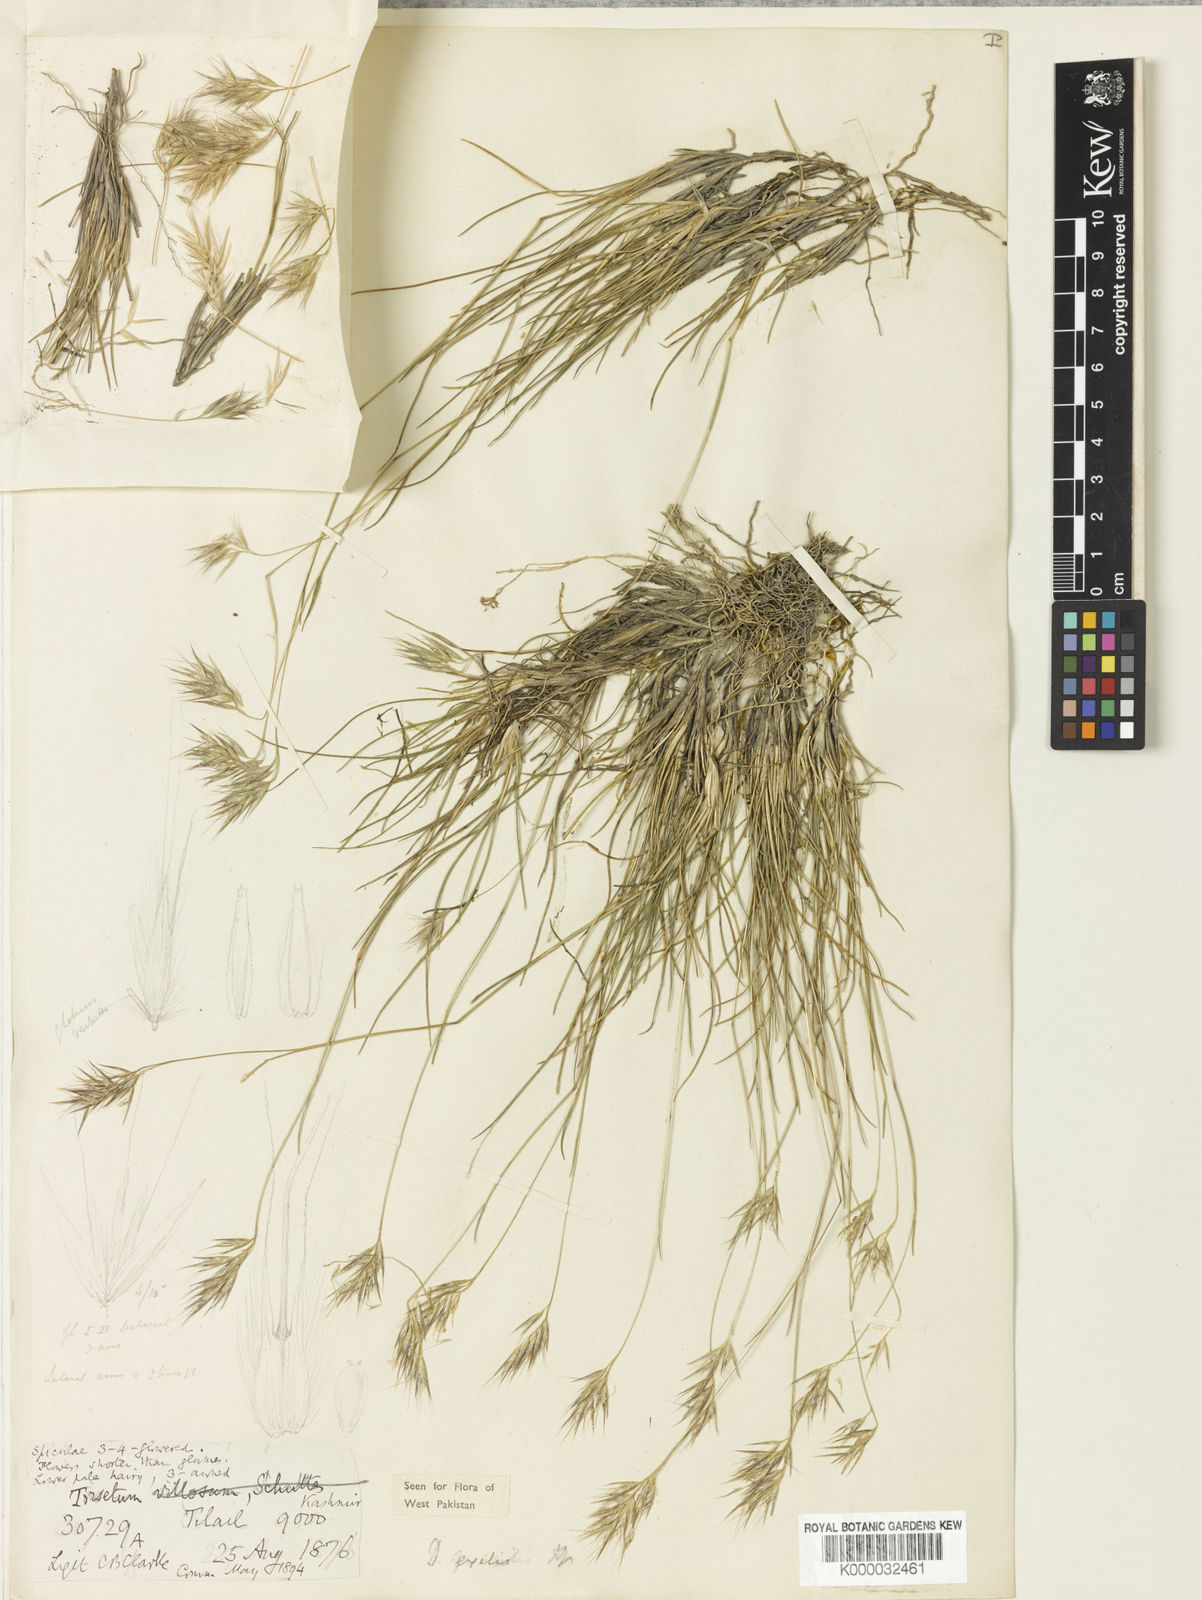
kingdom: Plantae
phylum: Tracheophyta
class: Liliopsida
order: Poales
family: Poaceae
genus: Rytidosperma
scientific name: Rytidosperma
